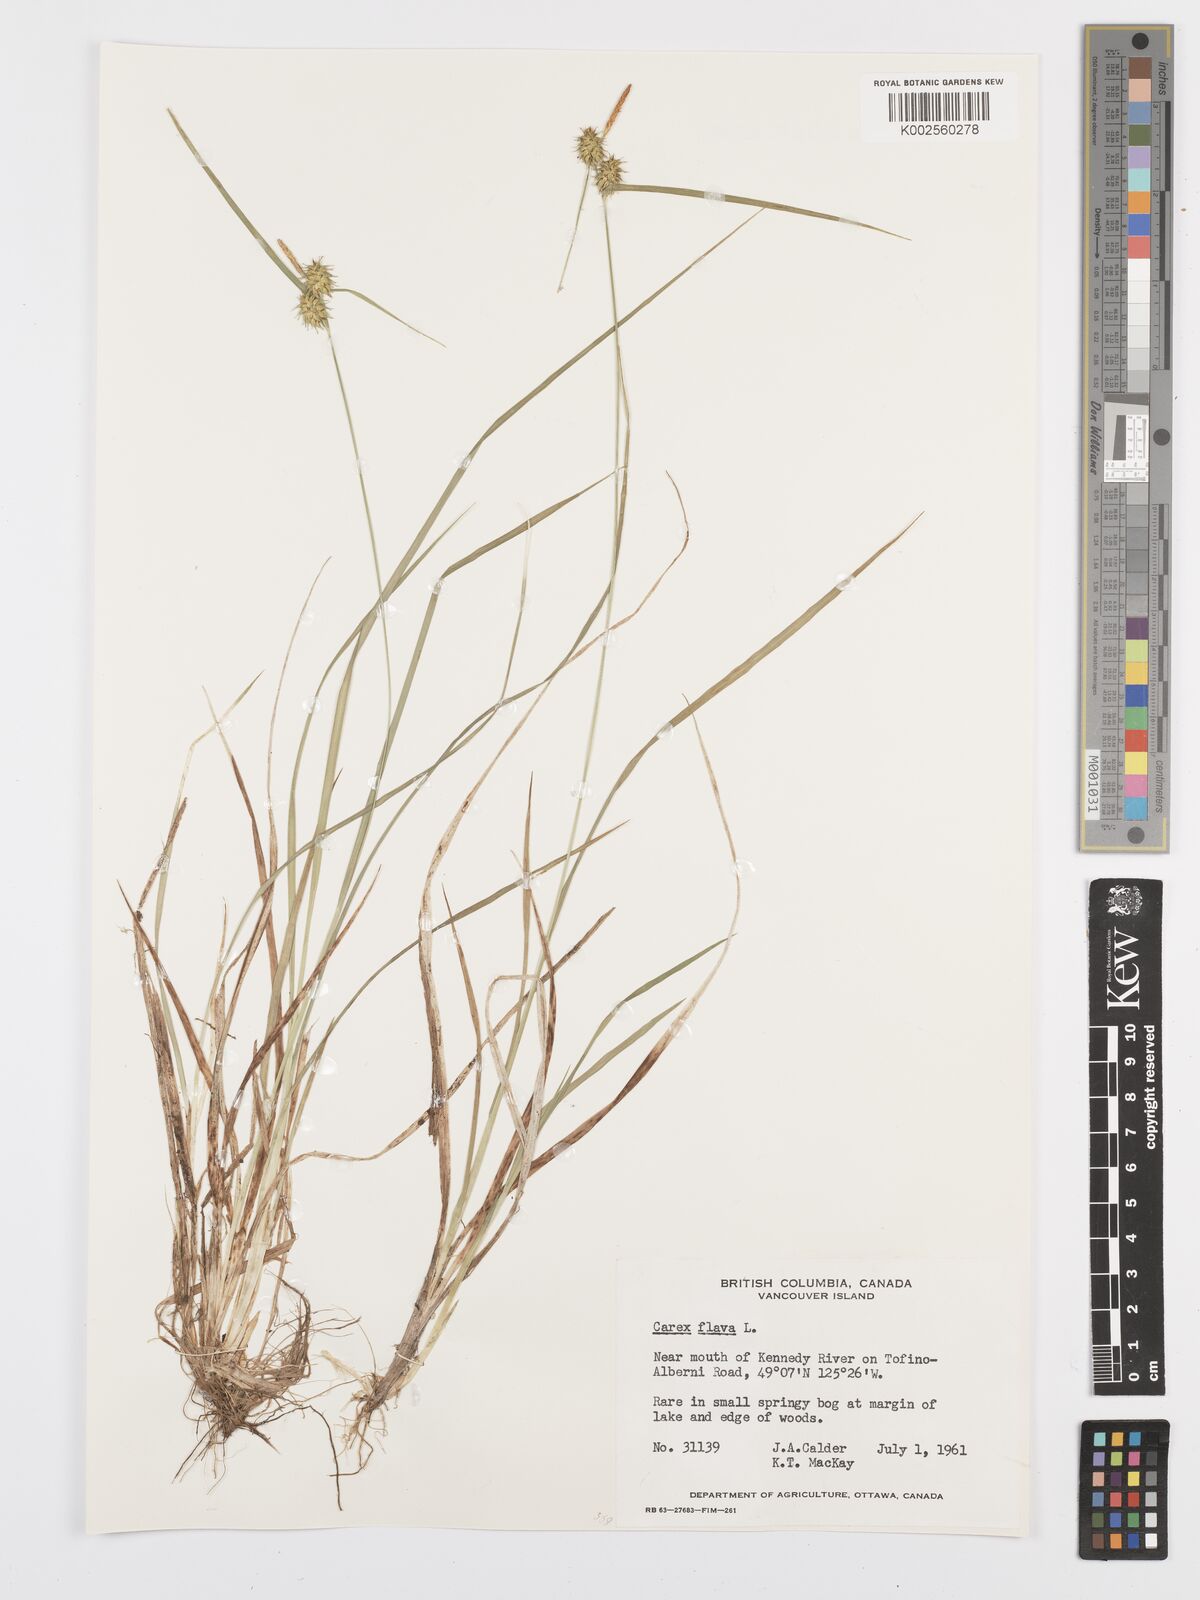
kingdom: Plantae
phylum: Tracheophyta
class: Liliopsida
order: Poales
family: Cyperaceae
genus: Carex
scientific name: Carex flava
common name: Large yellow-sedge
